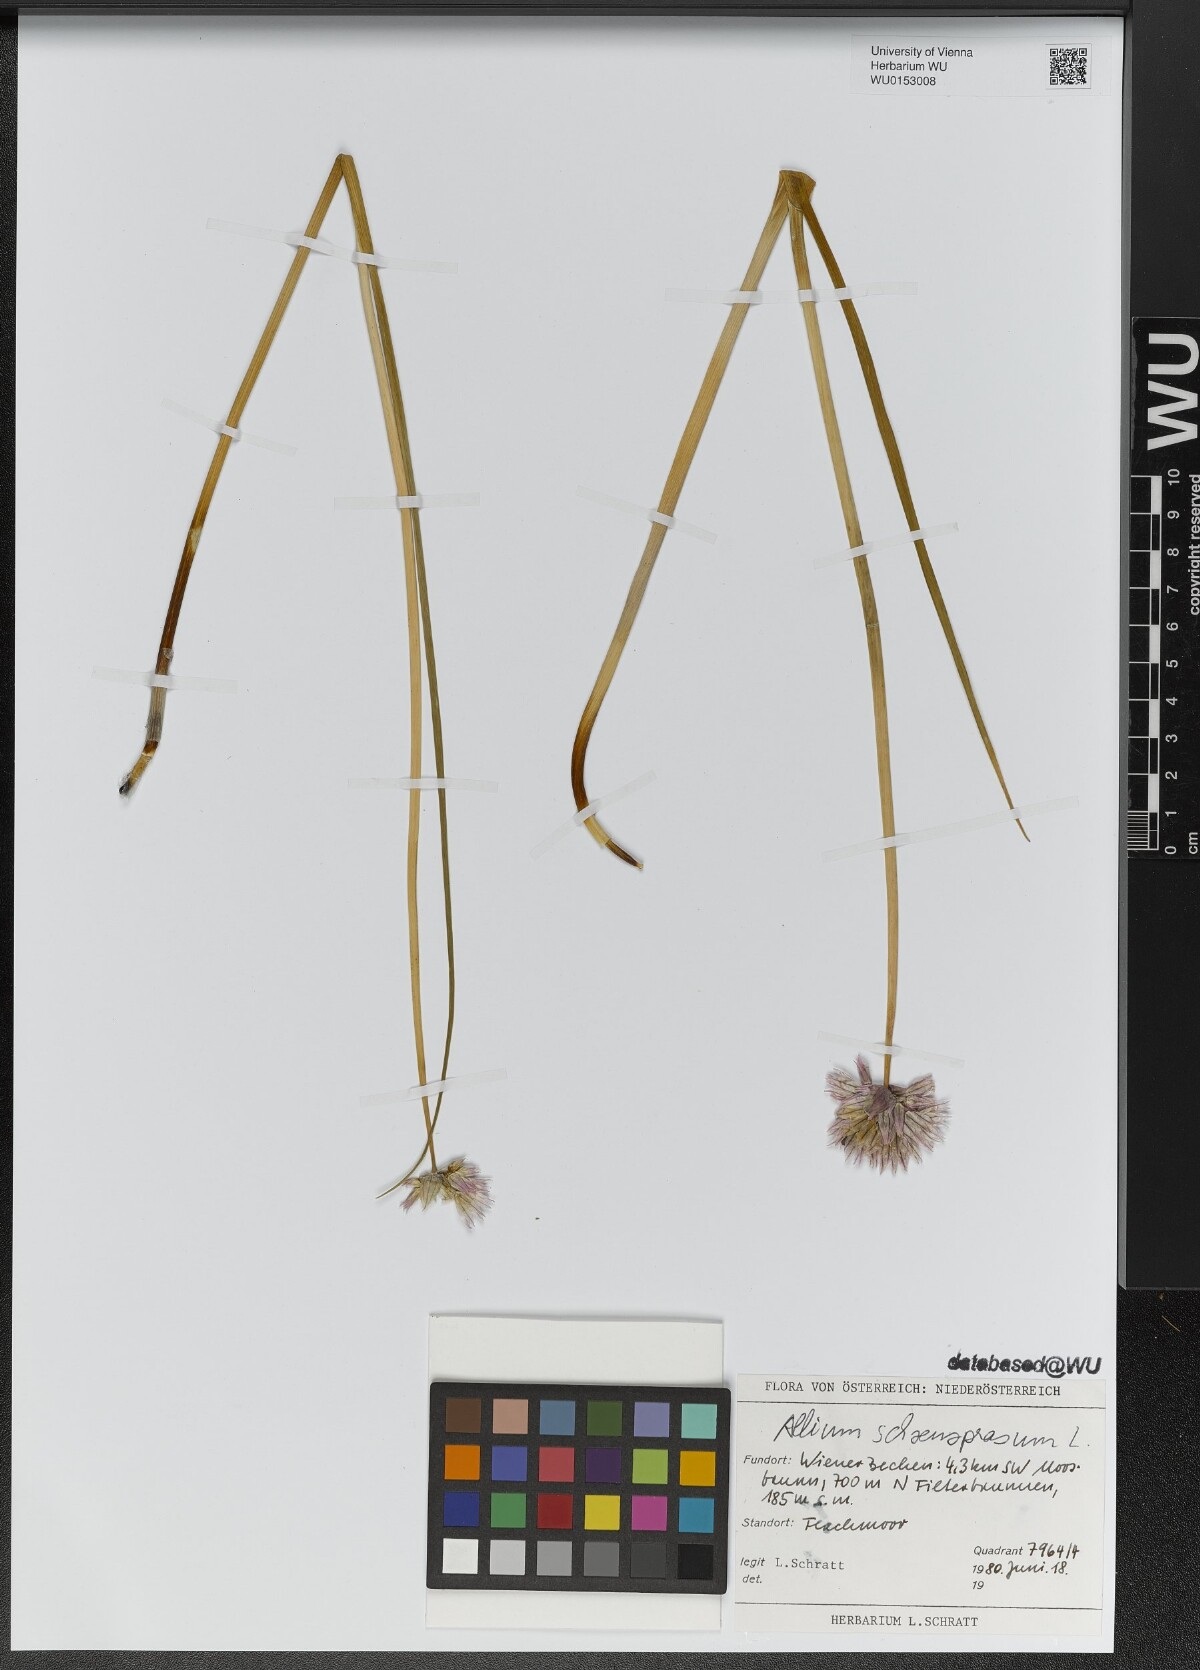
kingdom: Plantae
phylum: Tracheophyta
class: Liliopsida
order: Asparagales
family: Amaryllidaceae
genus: Allium
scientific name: Allium schoenoprasum
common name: Chives
